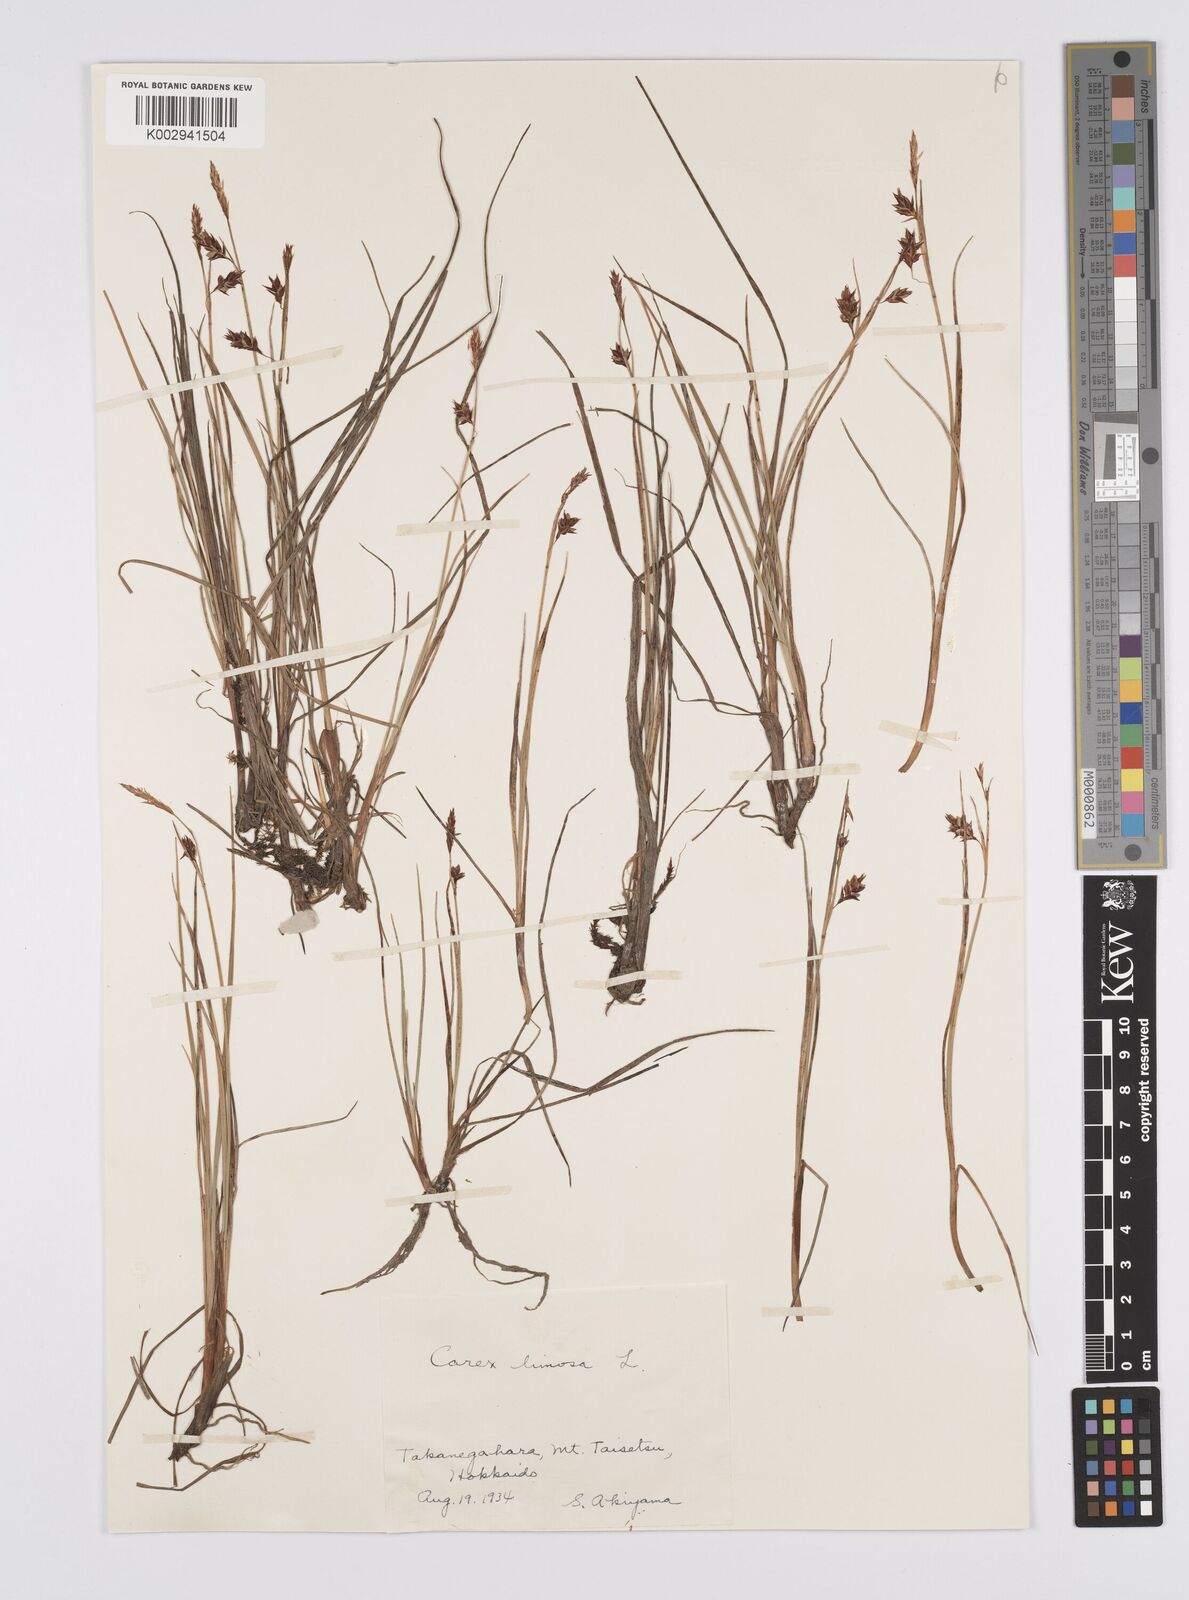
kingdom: Plantae
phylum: Tracheophyta
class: Liliopsida
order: Poales
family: Cyperaceae
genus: Carex
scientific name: Carex limosa
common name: Bog sedge
